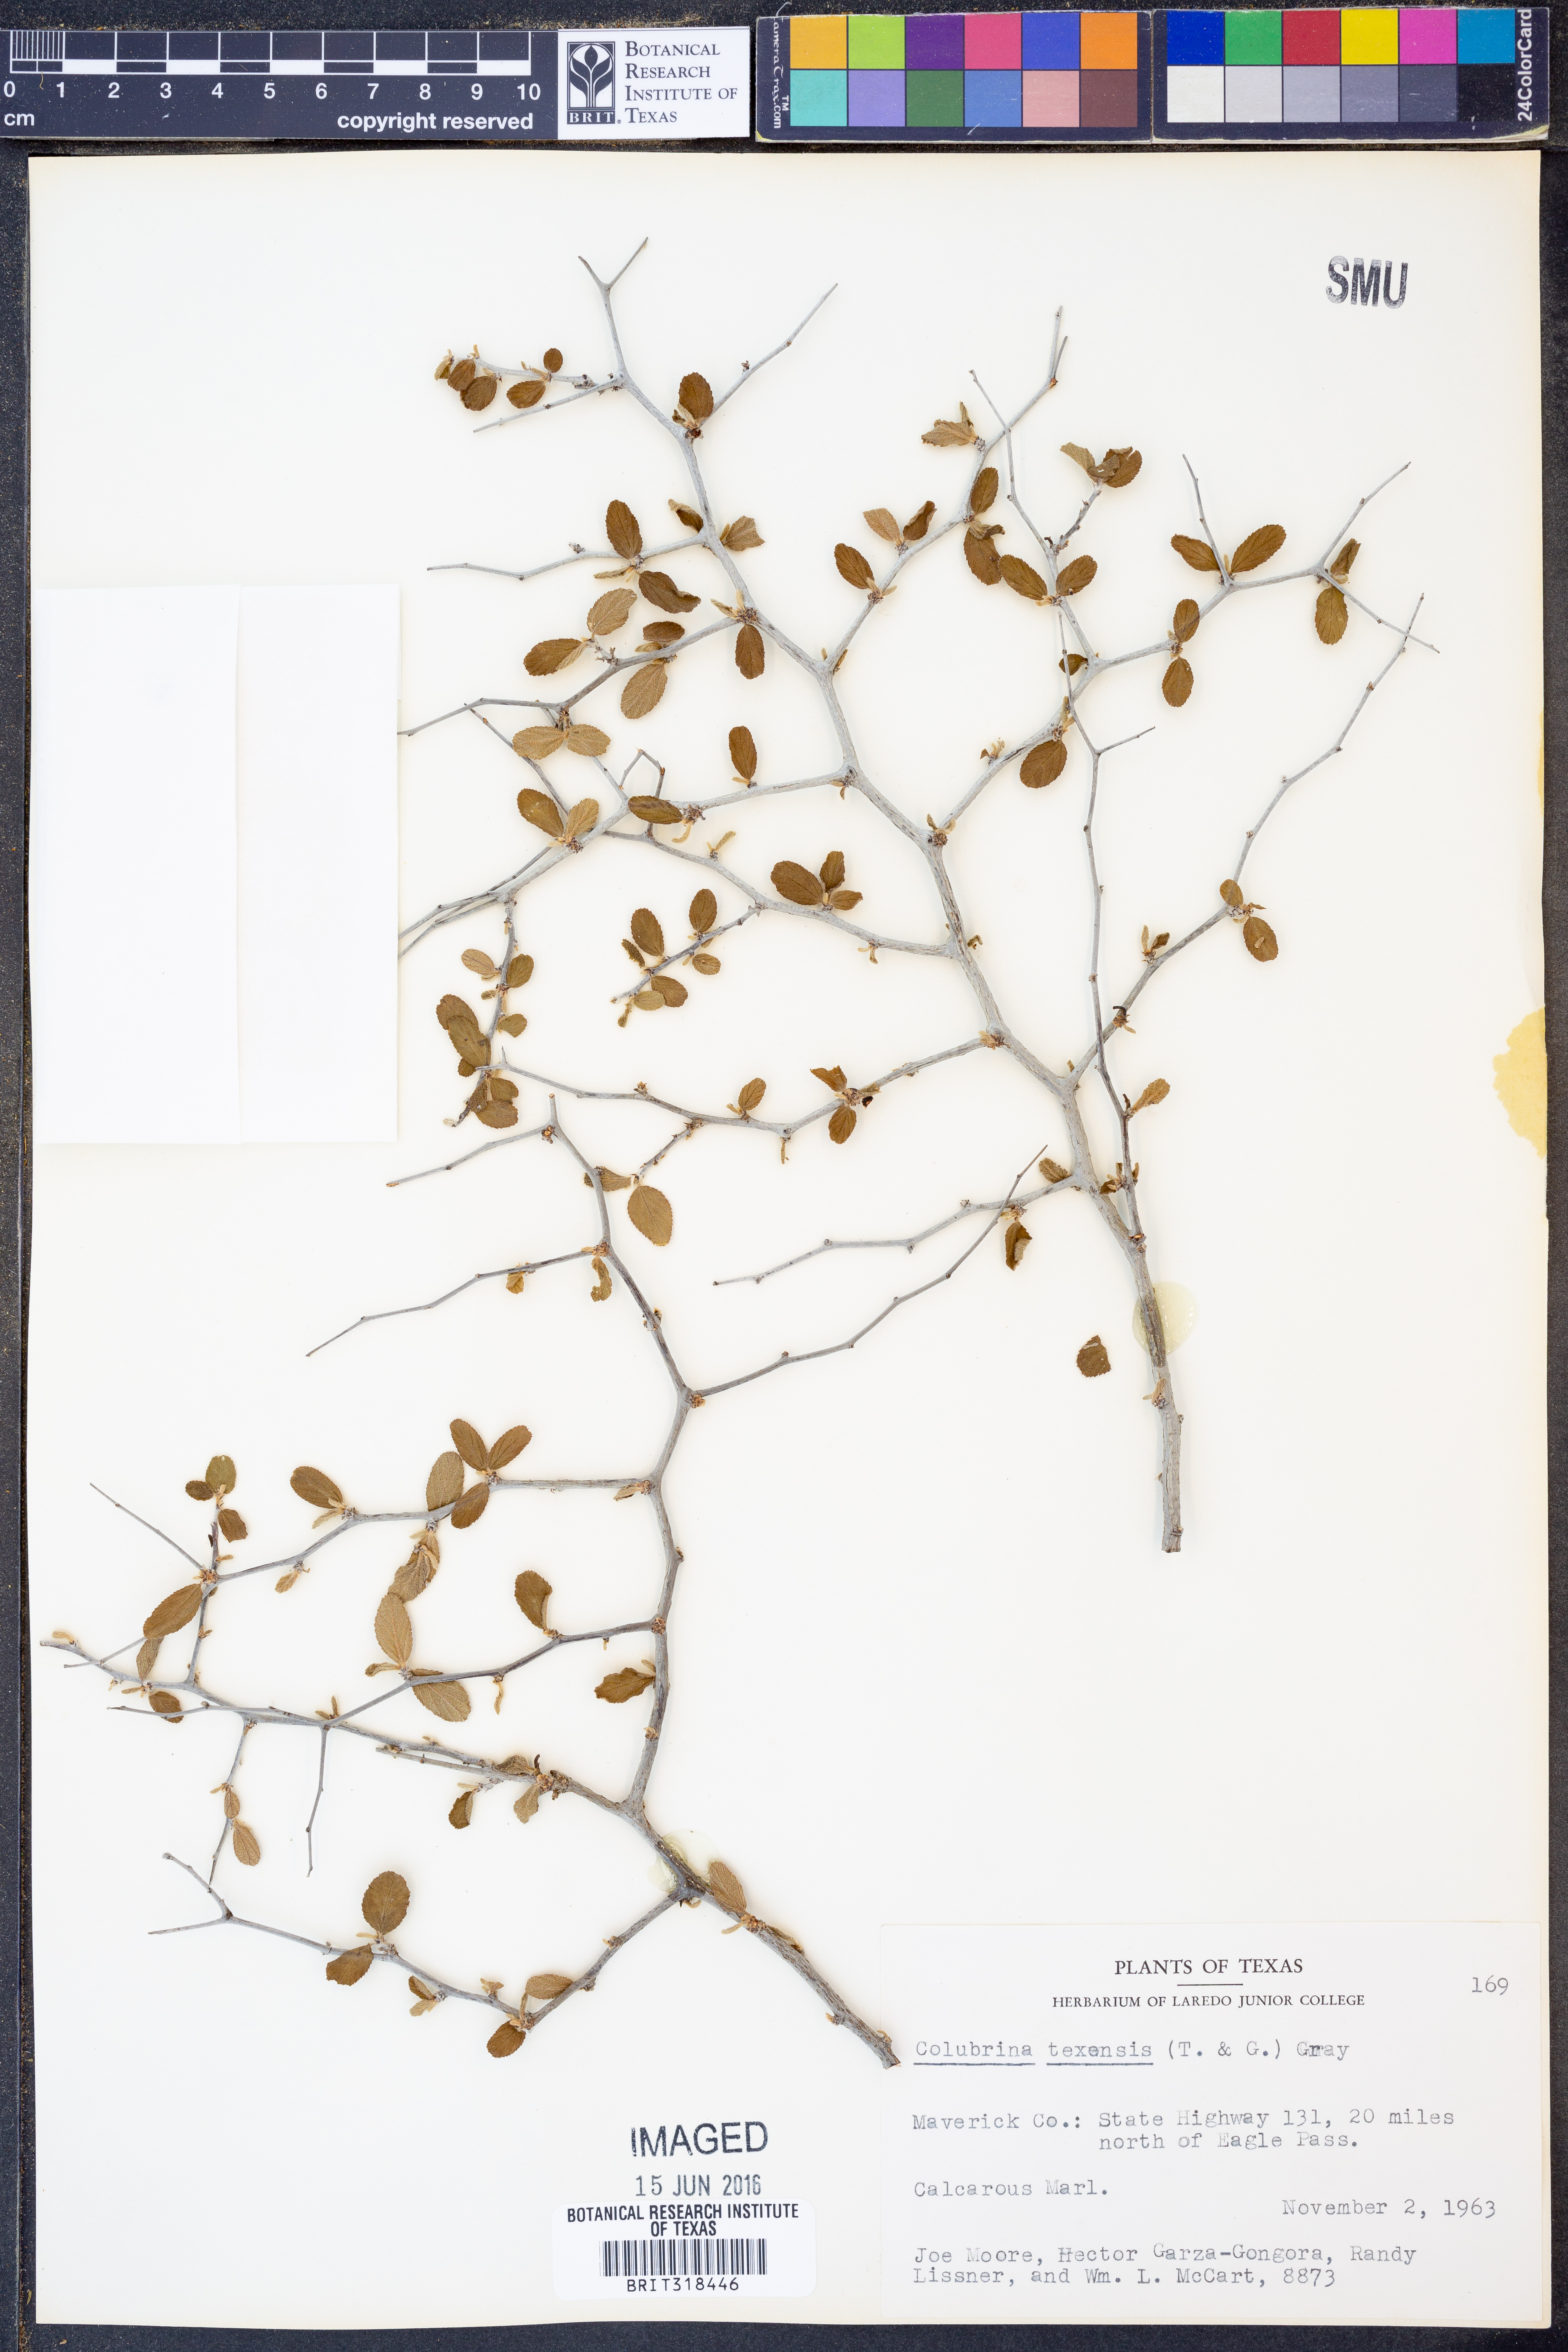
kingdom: Plantae
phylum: Tracheophyta
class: Magnoliopsida
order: Rosales
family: Rhamnaceae
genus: Colubrina
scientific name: Colubrina texensis
